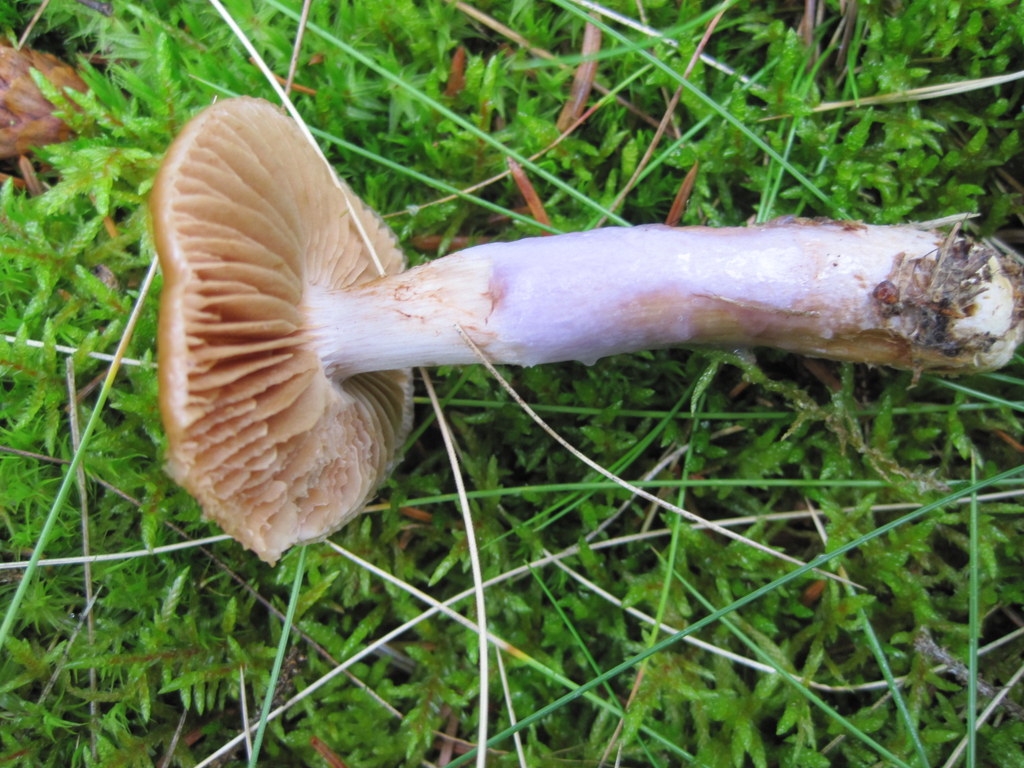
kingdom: Fungi
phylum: Basidiomycota
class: Agaricomycetes
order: Agaricales
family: Cortinariaceae
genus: Cortinarius
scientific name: Cortinarius collinitus
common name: spættet slørhat
